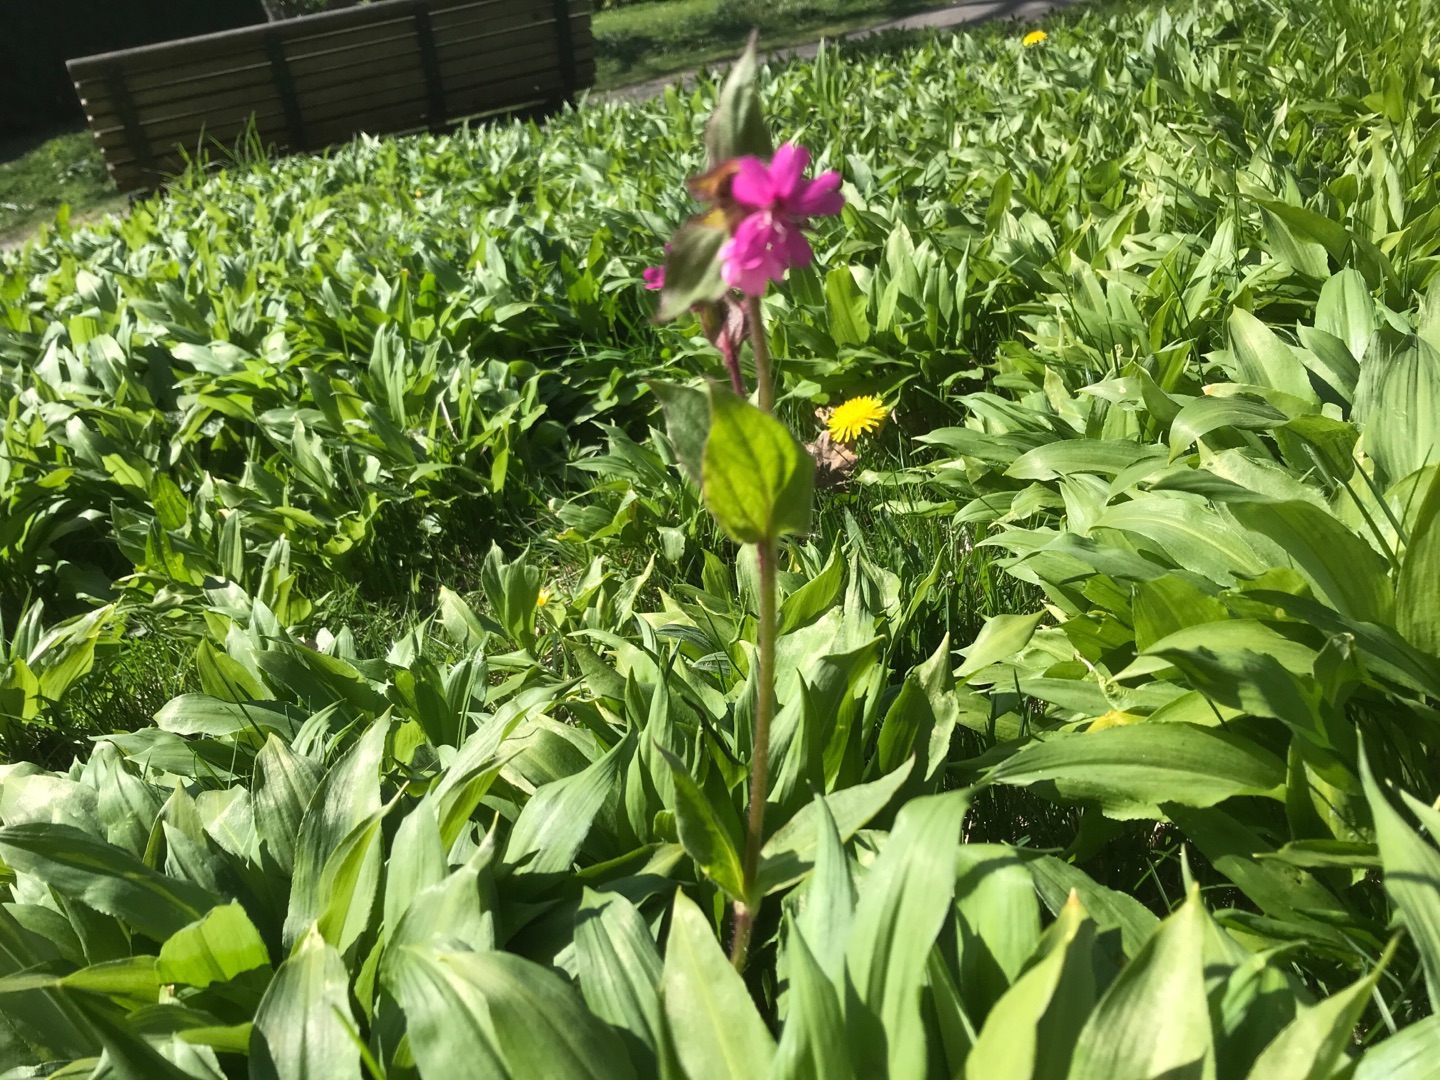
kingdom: Plantae
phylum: Tracheophyta
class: Magnoliopsida
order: Caryophyllales
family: Caryophyllaceae
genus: Silene
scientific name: Silene dioica
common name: Dagpragtstjerne
